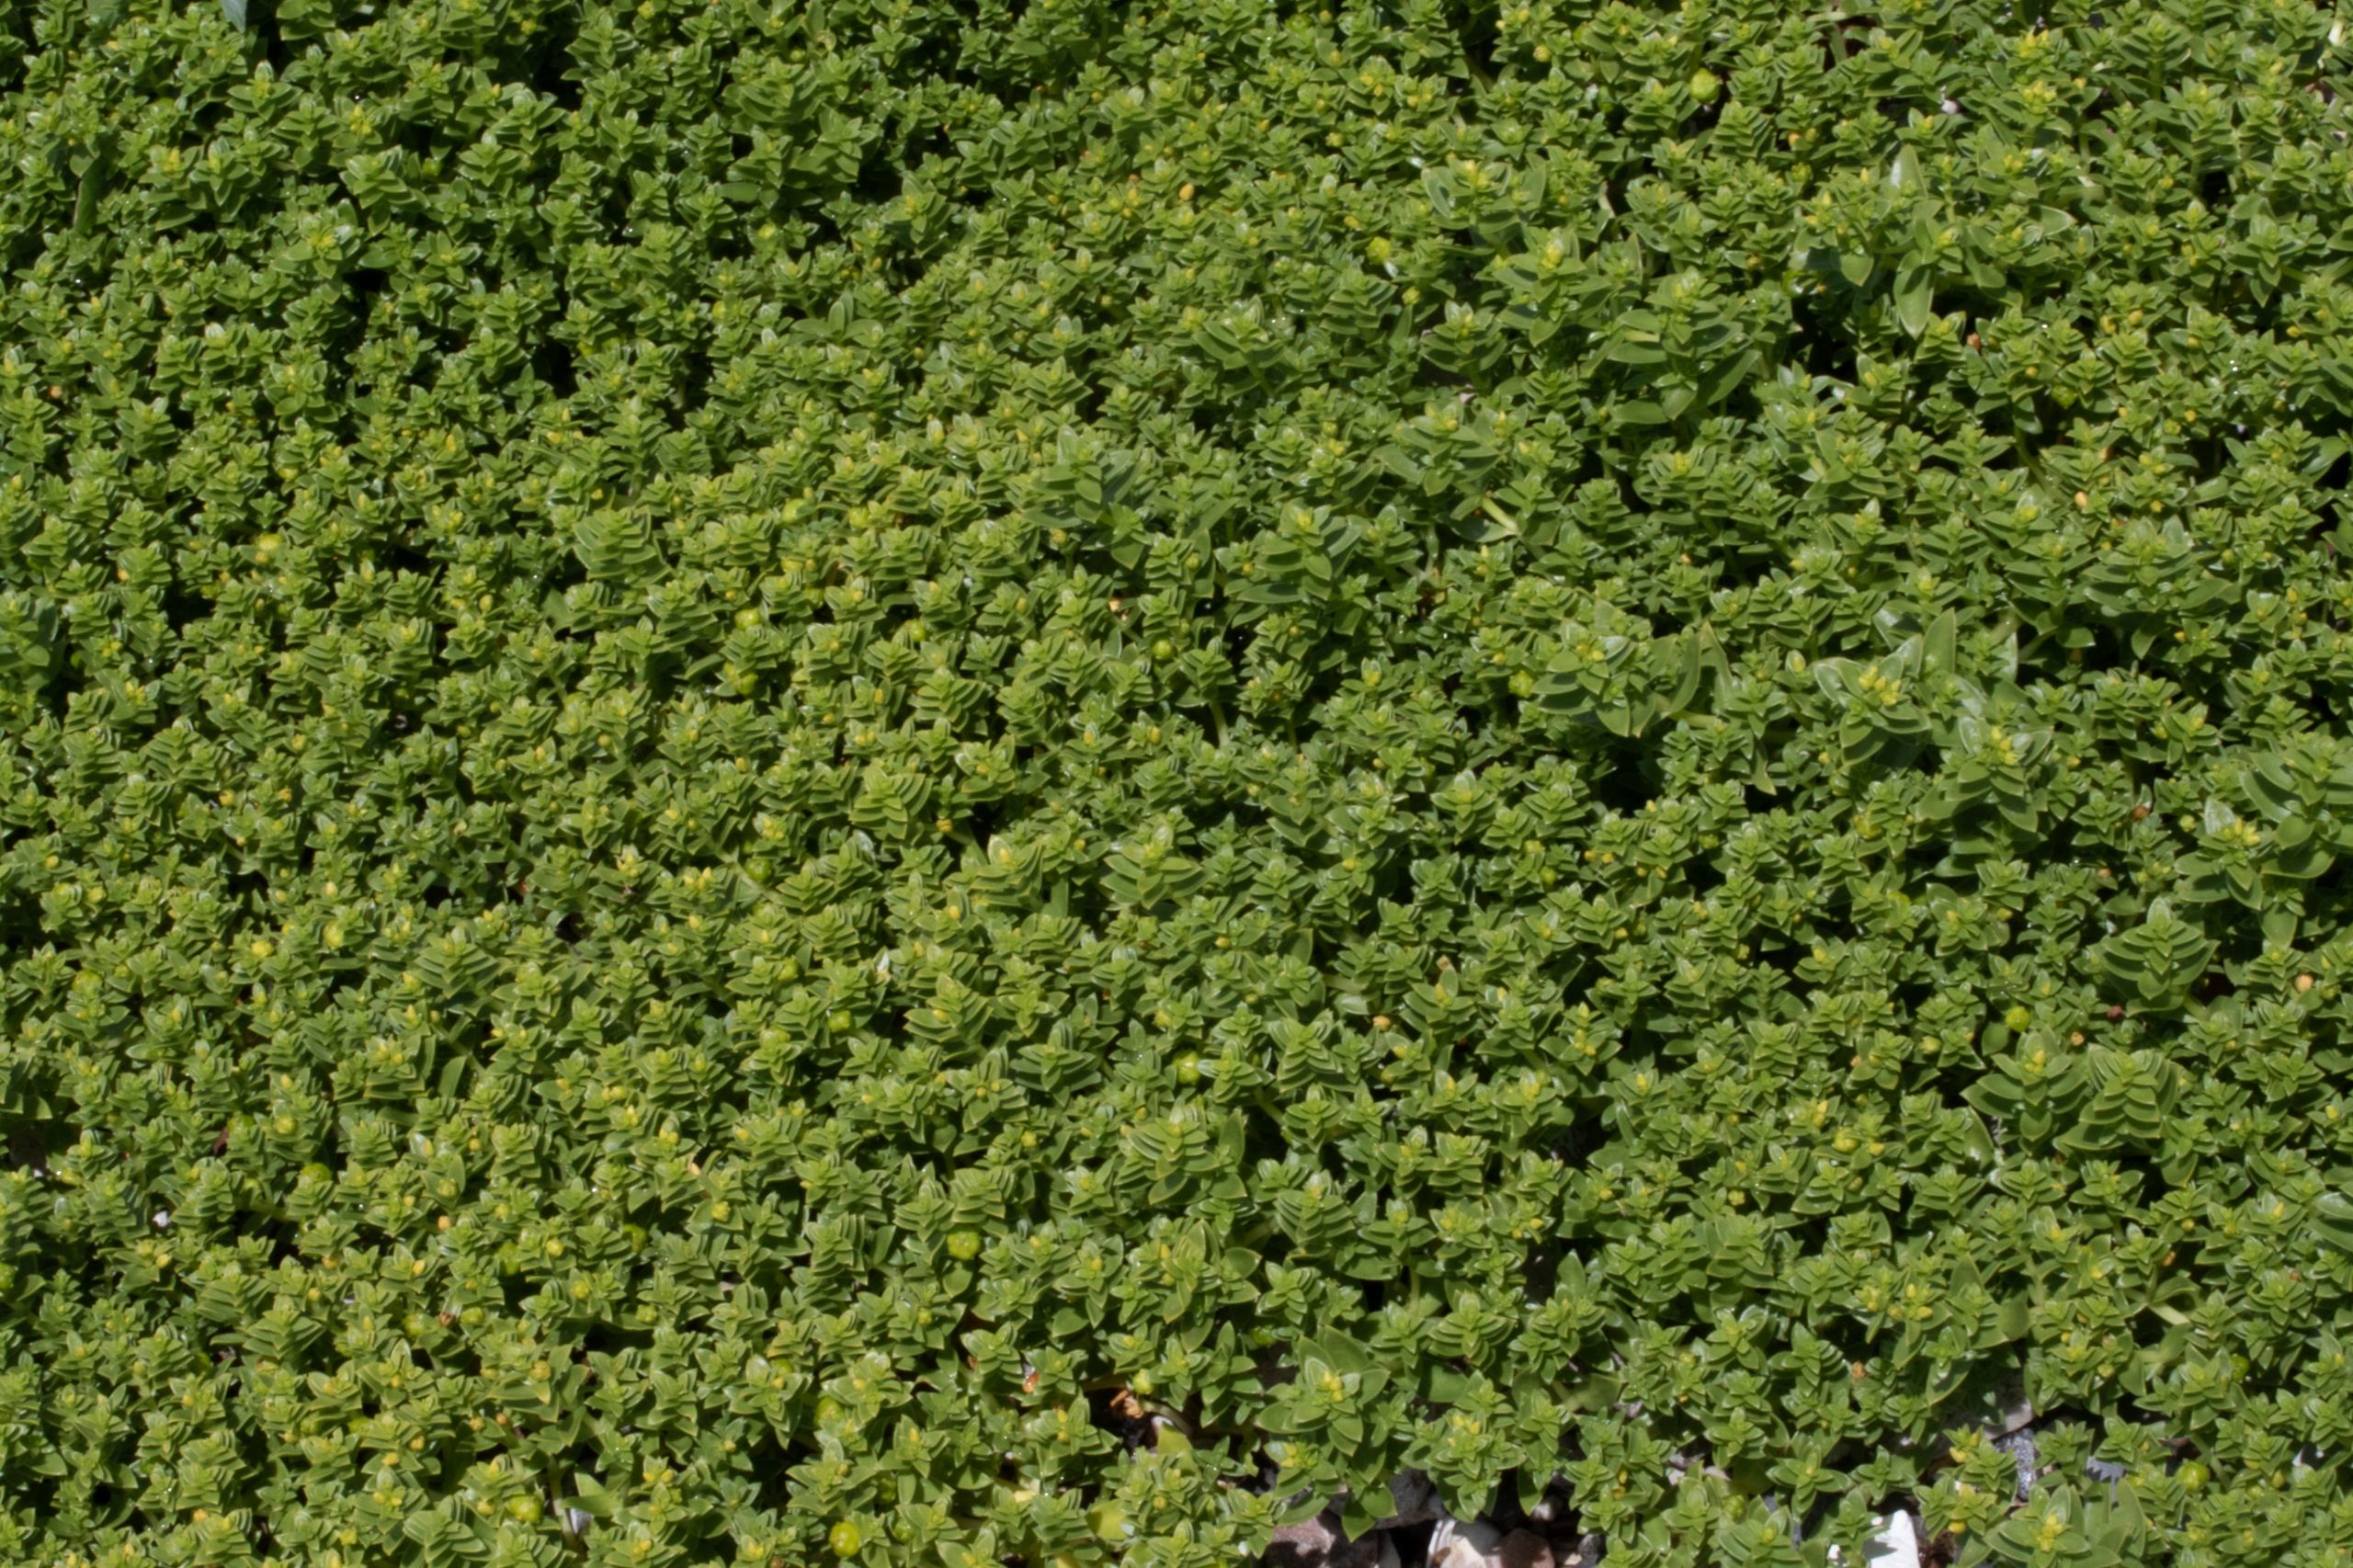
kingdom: Plantae
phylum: Tracheophyta
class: Magnoliopsida
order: Caryophyllales
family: Caryophyllaceae
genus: Honckenya
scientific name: Honckenya peploides
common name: Strandarve
